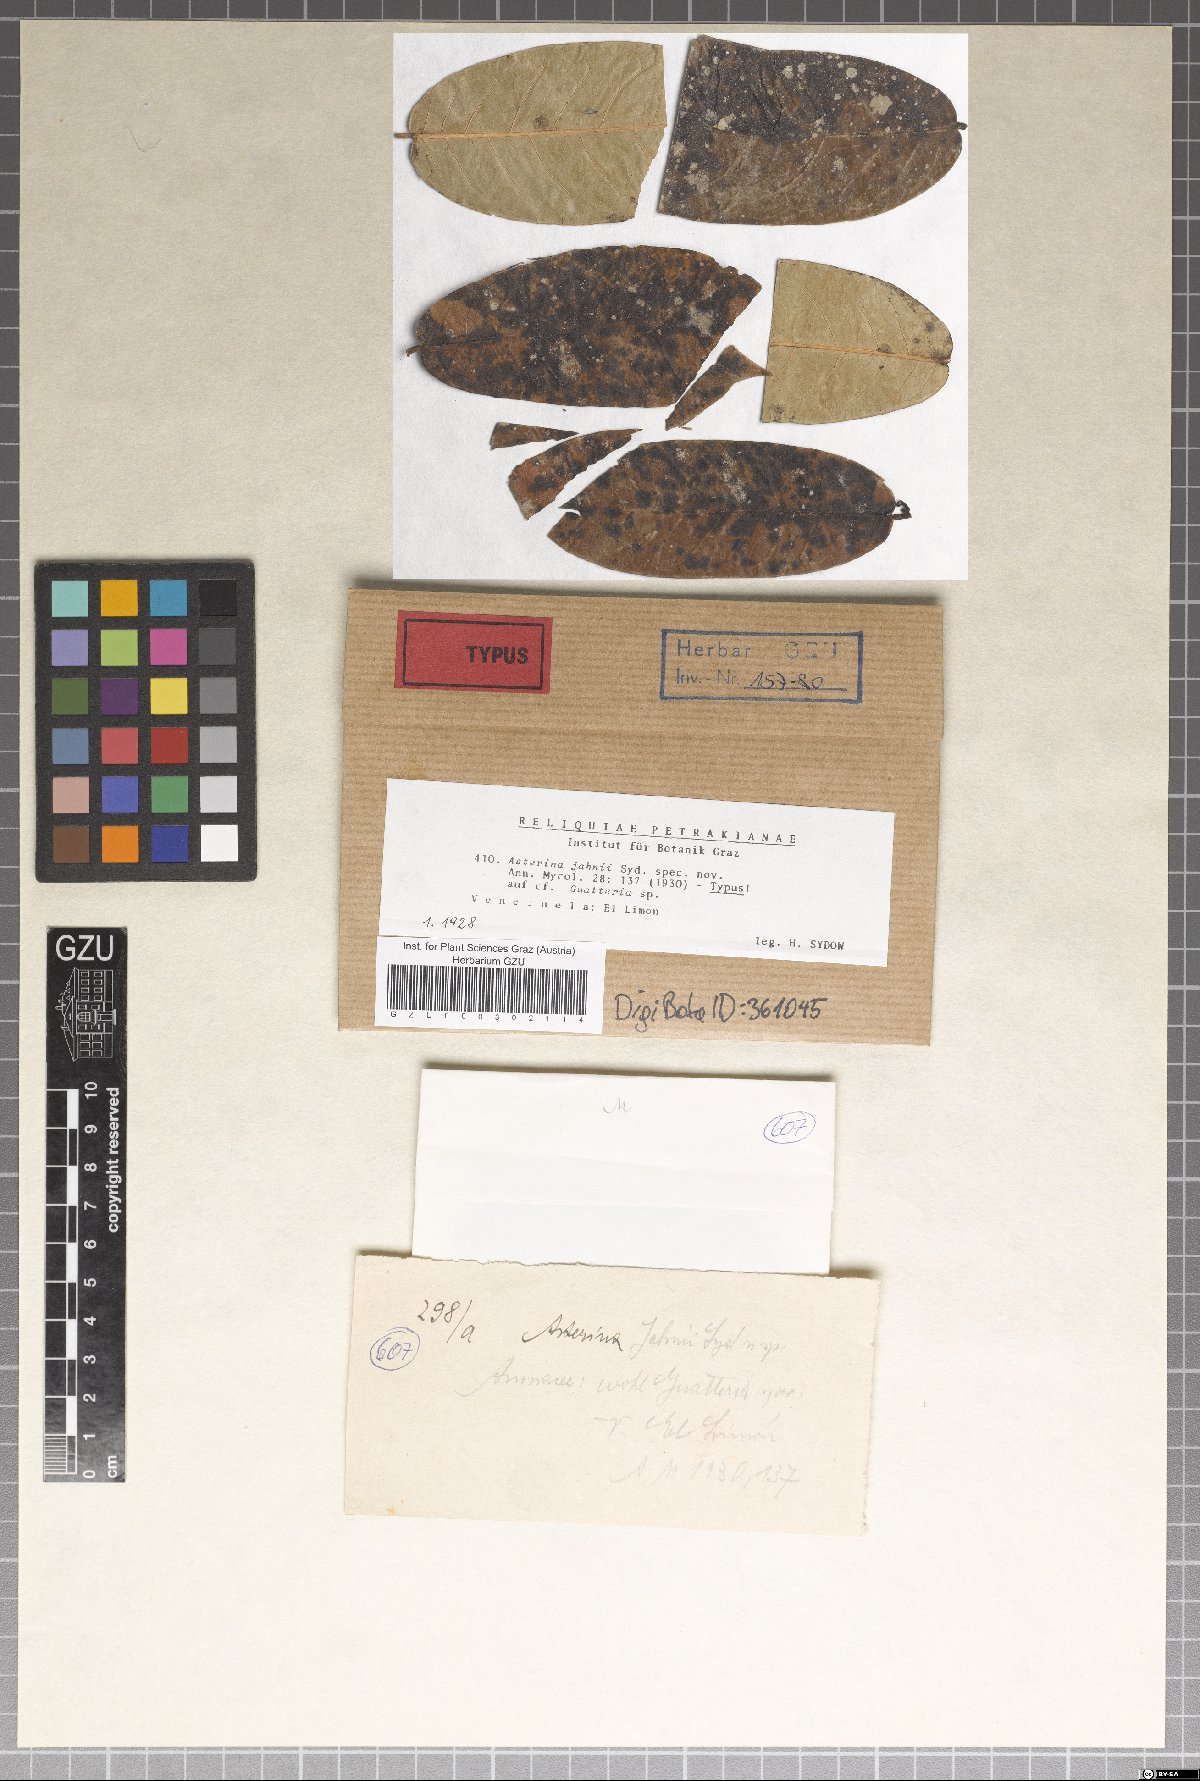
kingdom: Fungi
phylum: Ascomycota
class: Dothideomycetes
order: Asterinales
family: Asterinaceae
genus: Asterina
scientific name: Asterina jahnii
